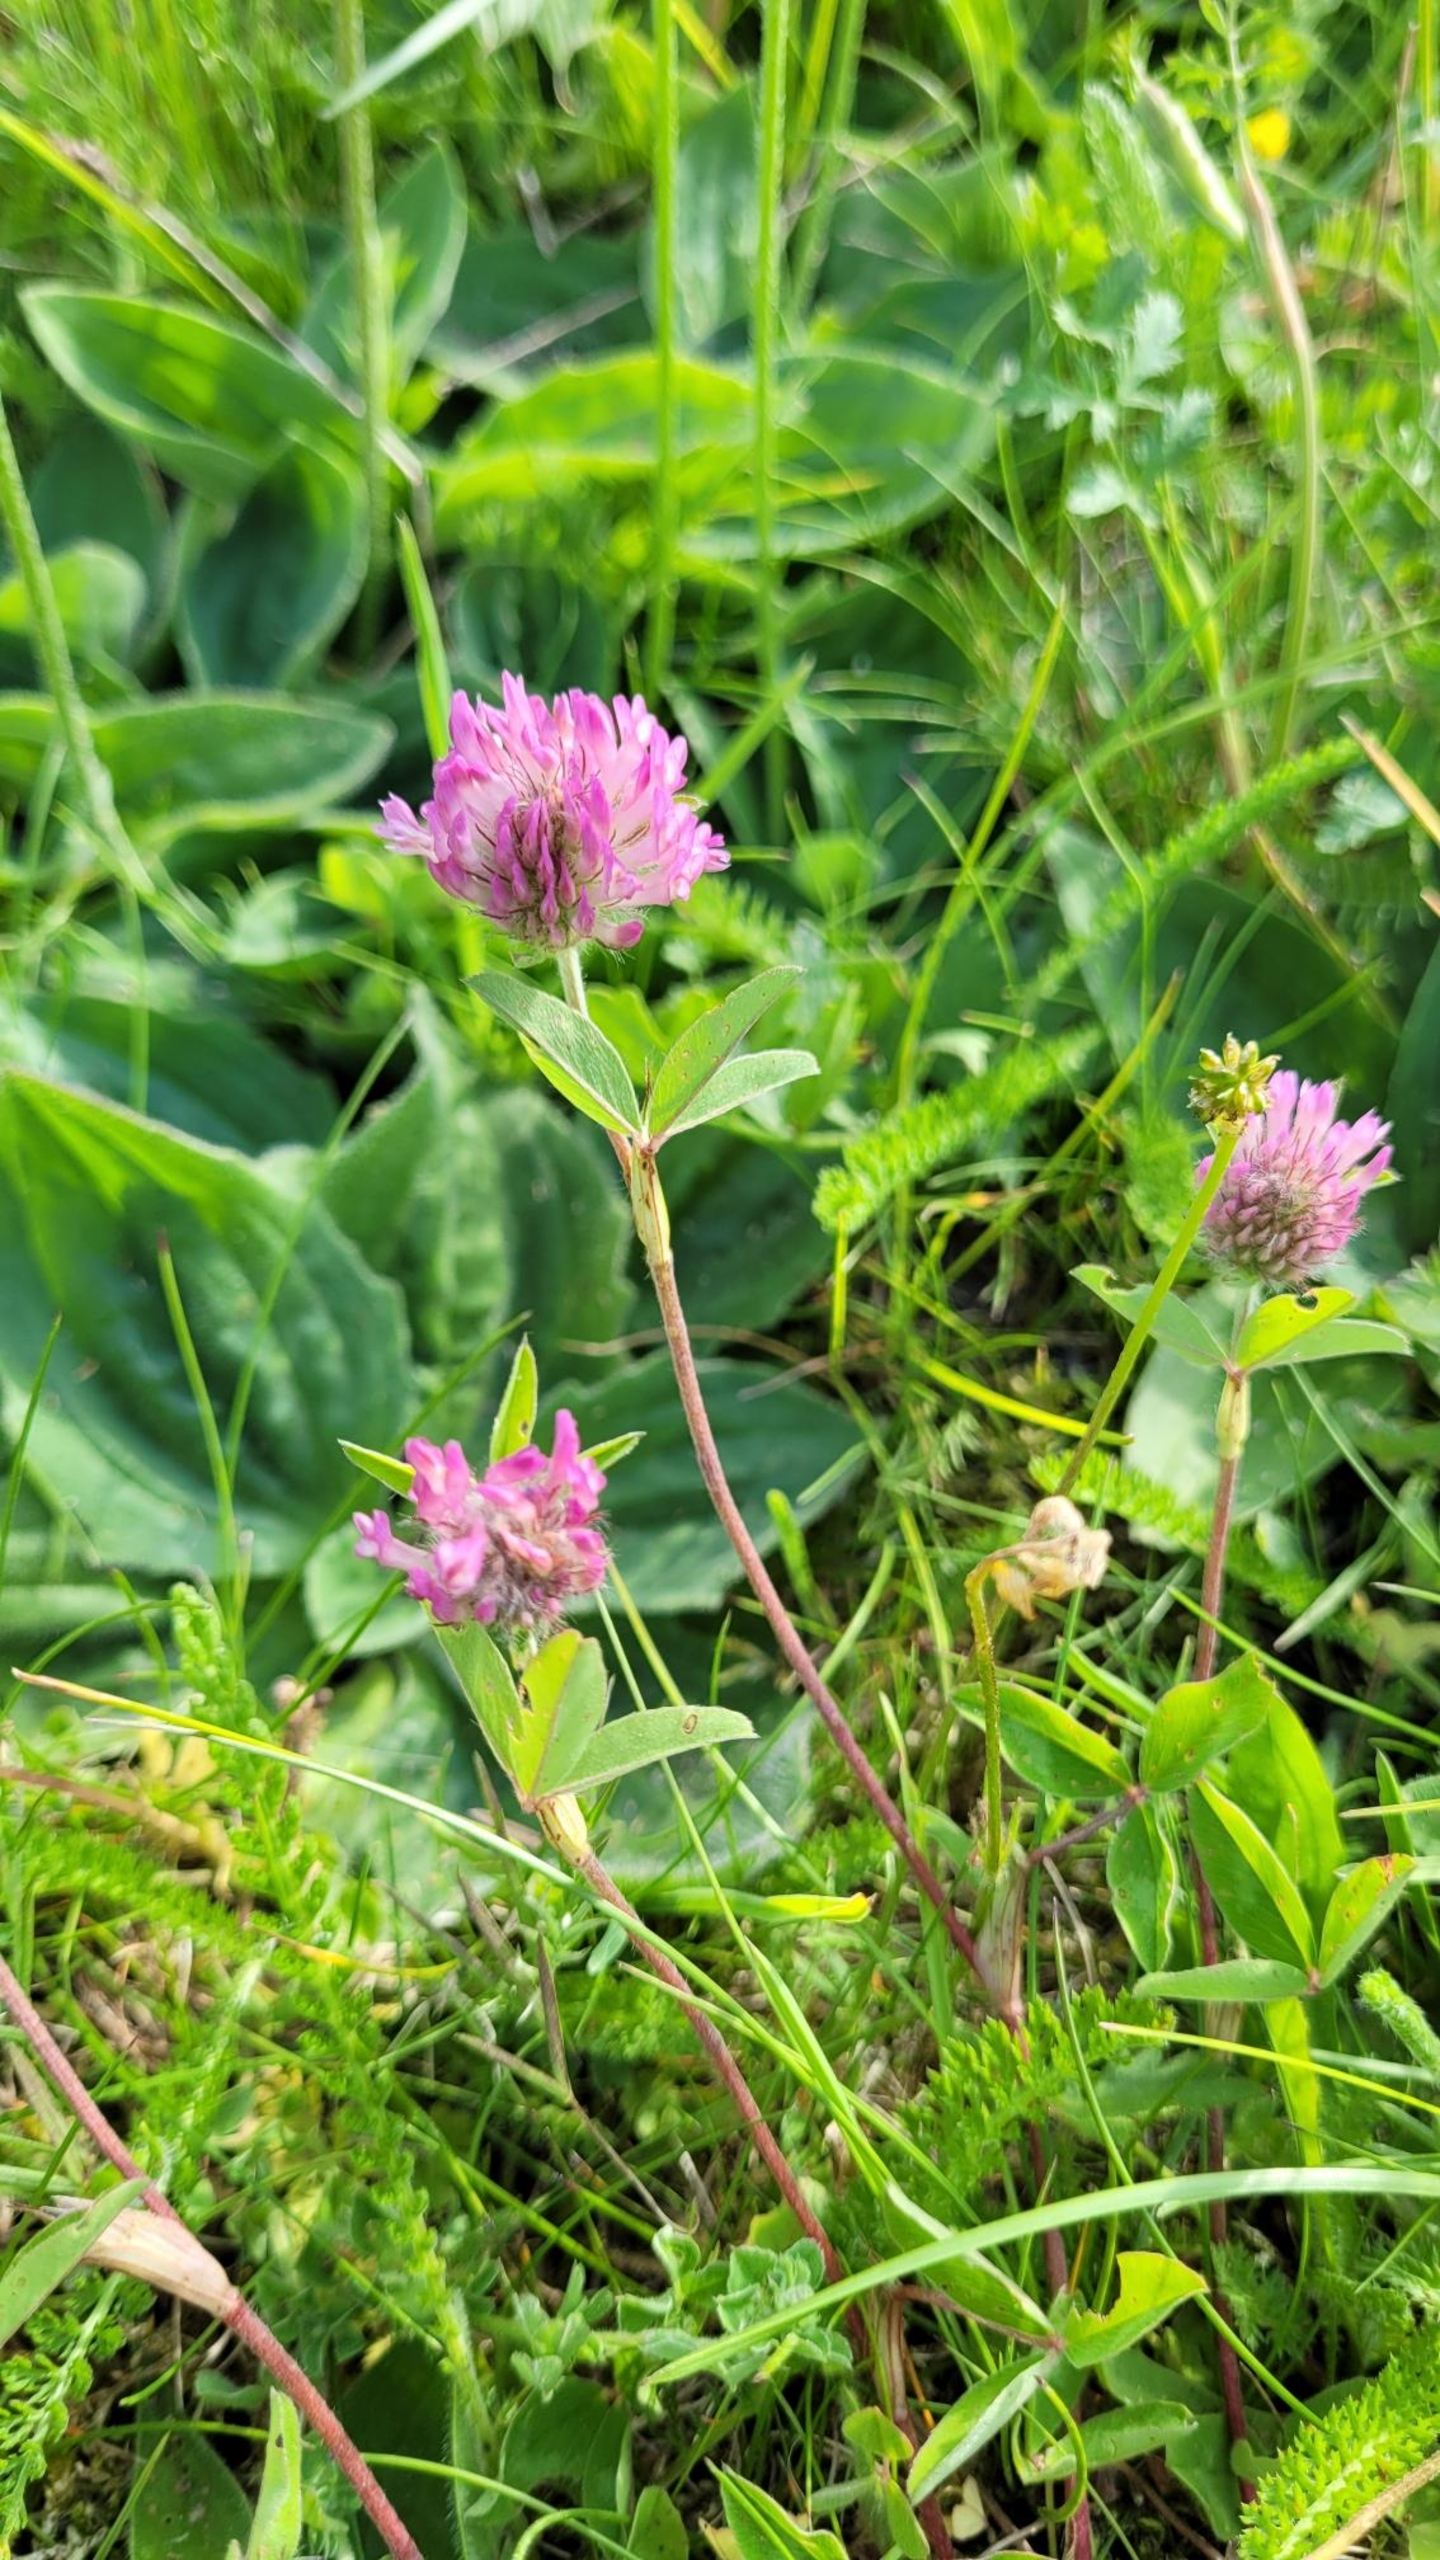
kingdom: Plantae
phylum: Tracheophyta
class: Magnoliopsida
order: Fabales
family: Fabaceae
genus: Trifolium
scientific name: Trifolium medium
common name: Bugtet kløver
